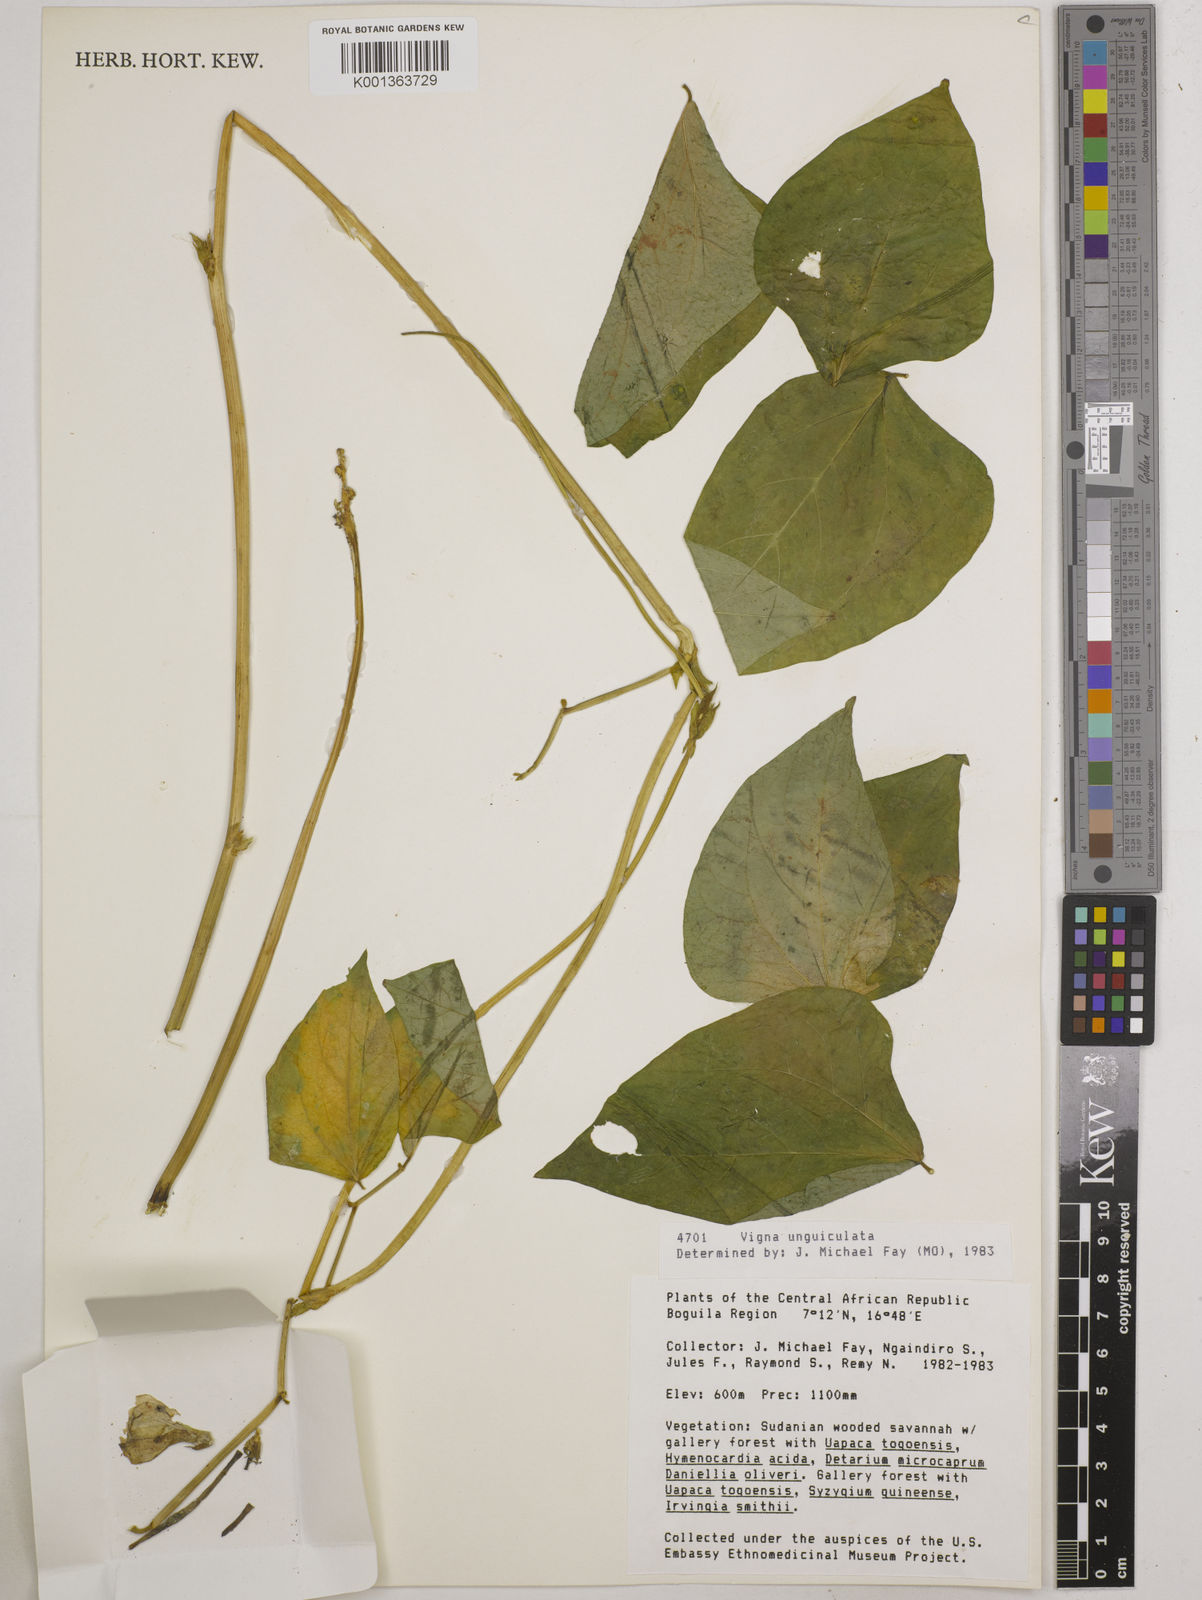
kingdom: Plantae
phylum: Tracheophyta
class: Magnoliopsida
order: Fabales
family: Fabaceae
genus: Vigna
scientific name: Vigna unguiculata
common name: Cowpea
